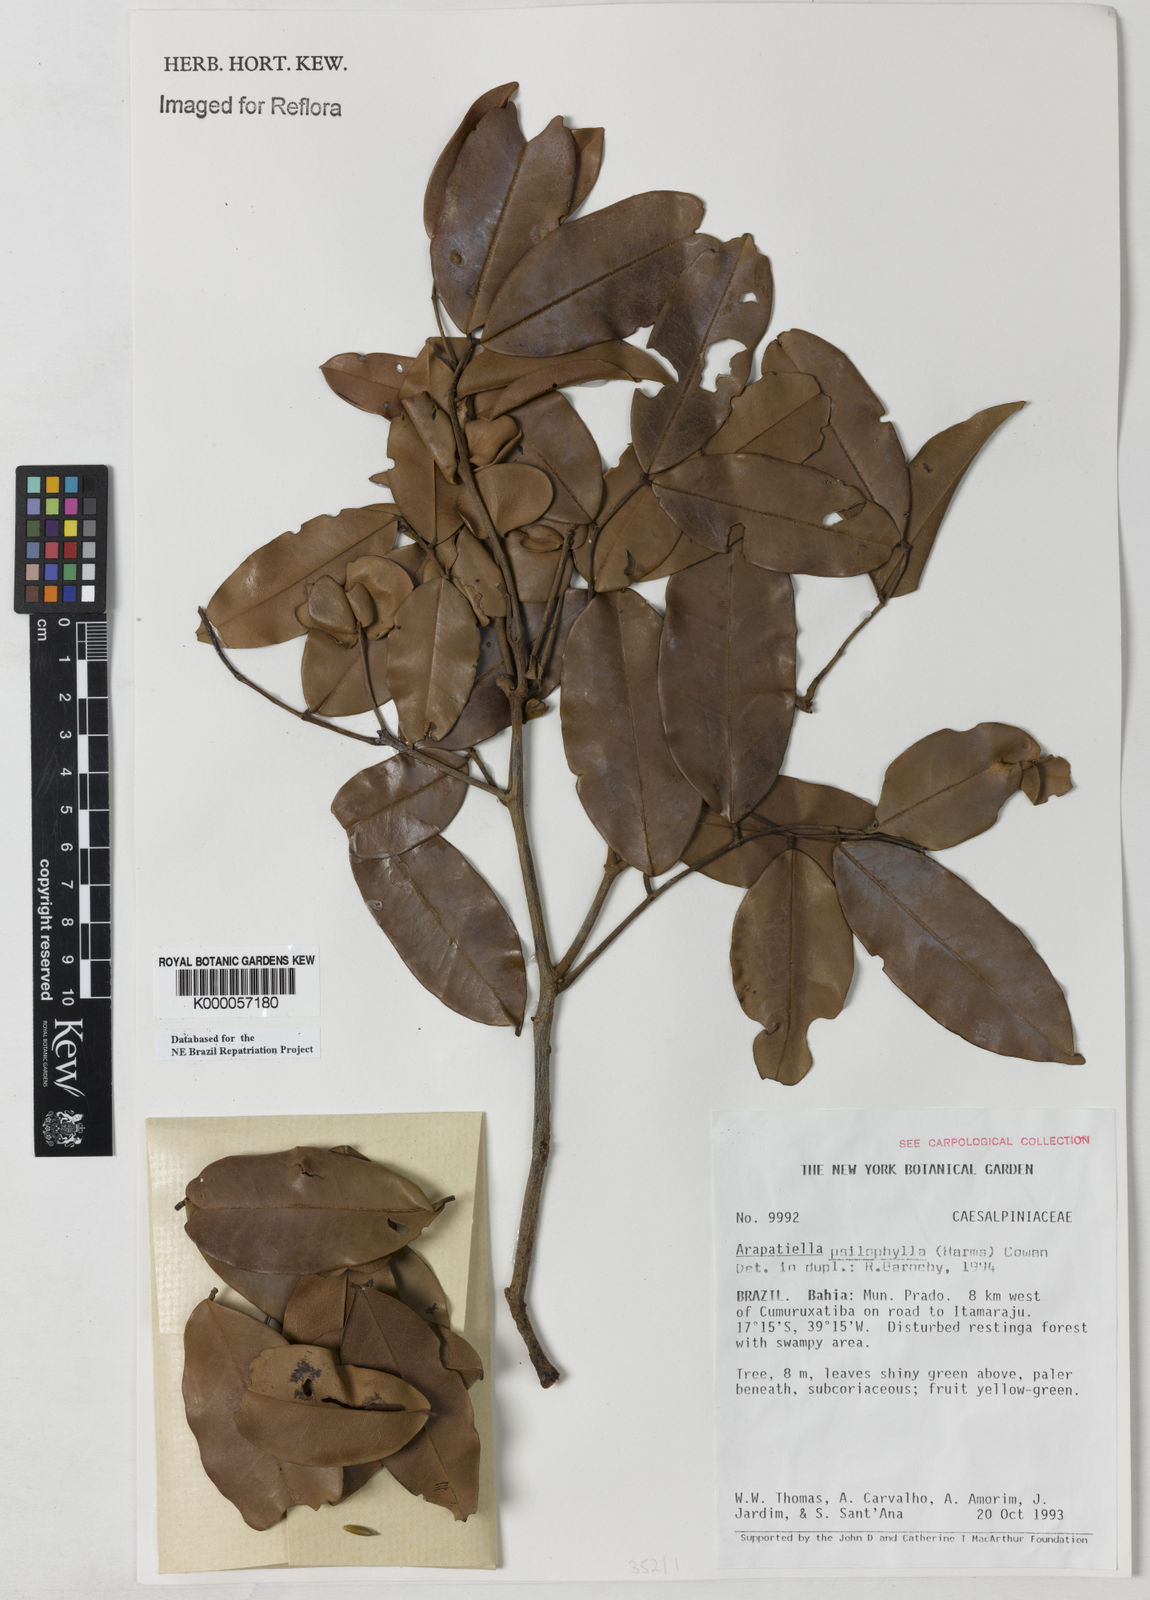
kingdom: Plantae
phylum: Tracheophyta
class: Magnoliopsida
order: Fabales
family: Fabaceae
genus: Arapatiella
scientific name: Arapatiella psilophylla
